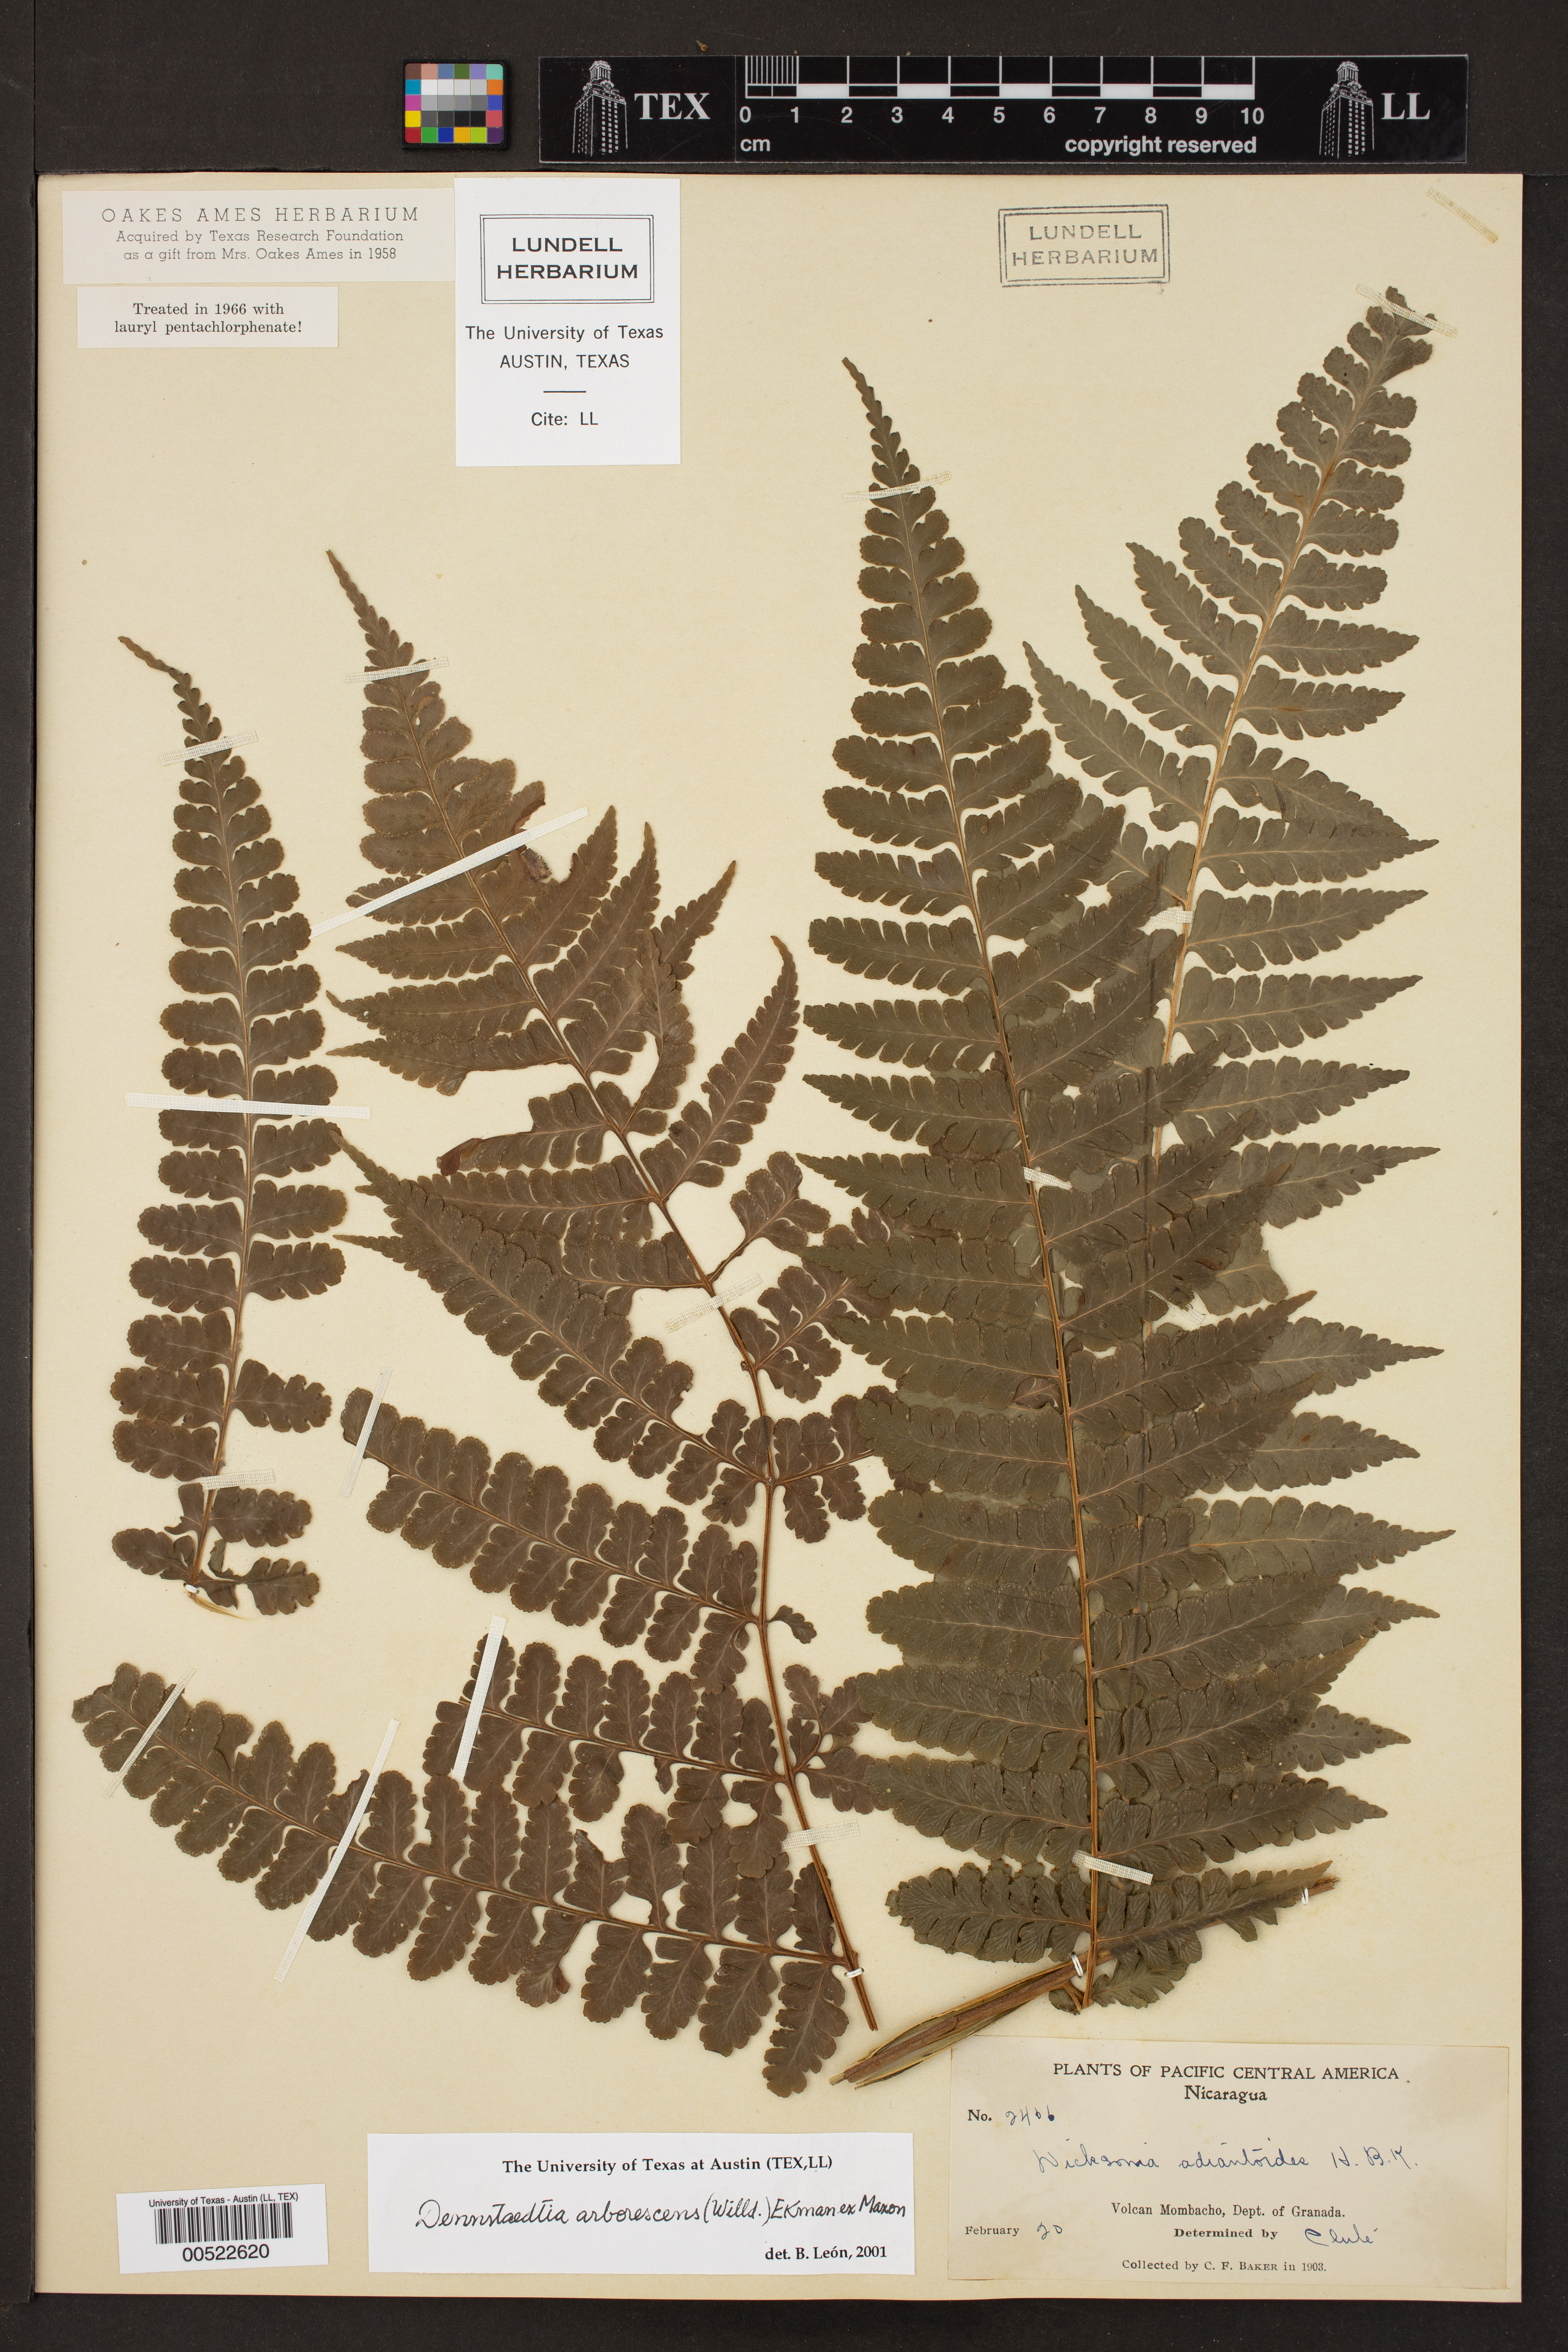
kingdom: Plantae
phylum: Tracheophyta
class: Polypodiopsida
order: Polypodiales
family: Dennstaedtiaceae
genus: Dennstaedtia
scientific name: Dennstaedtia arborescens
